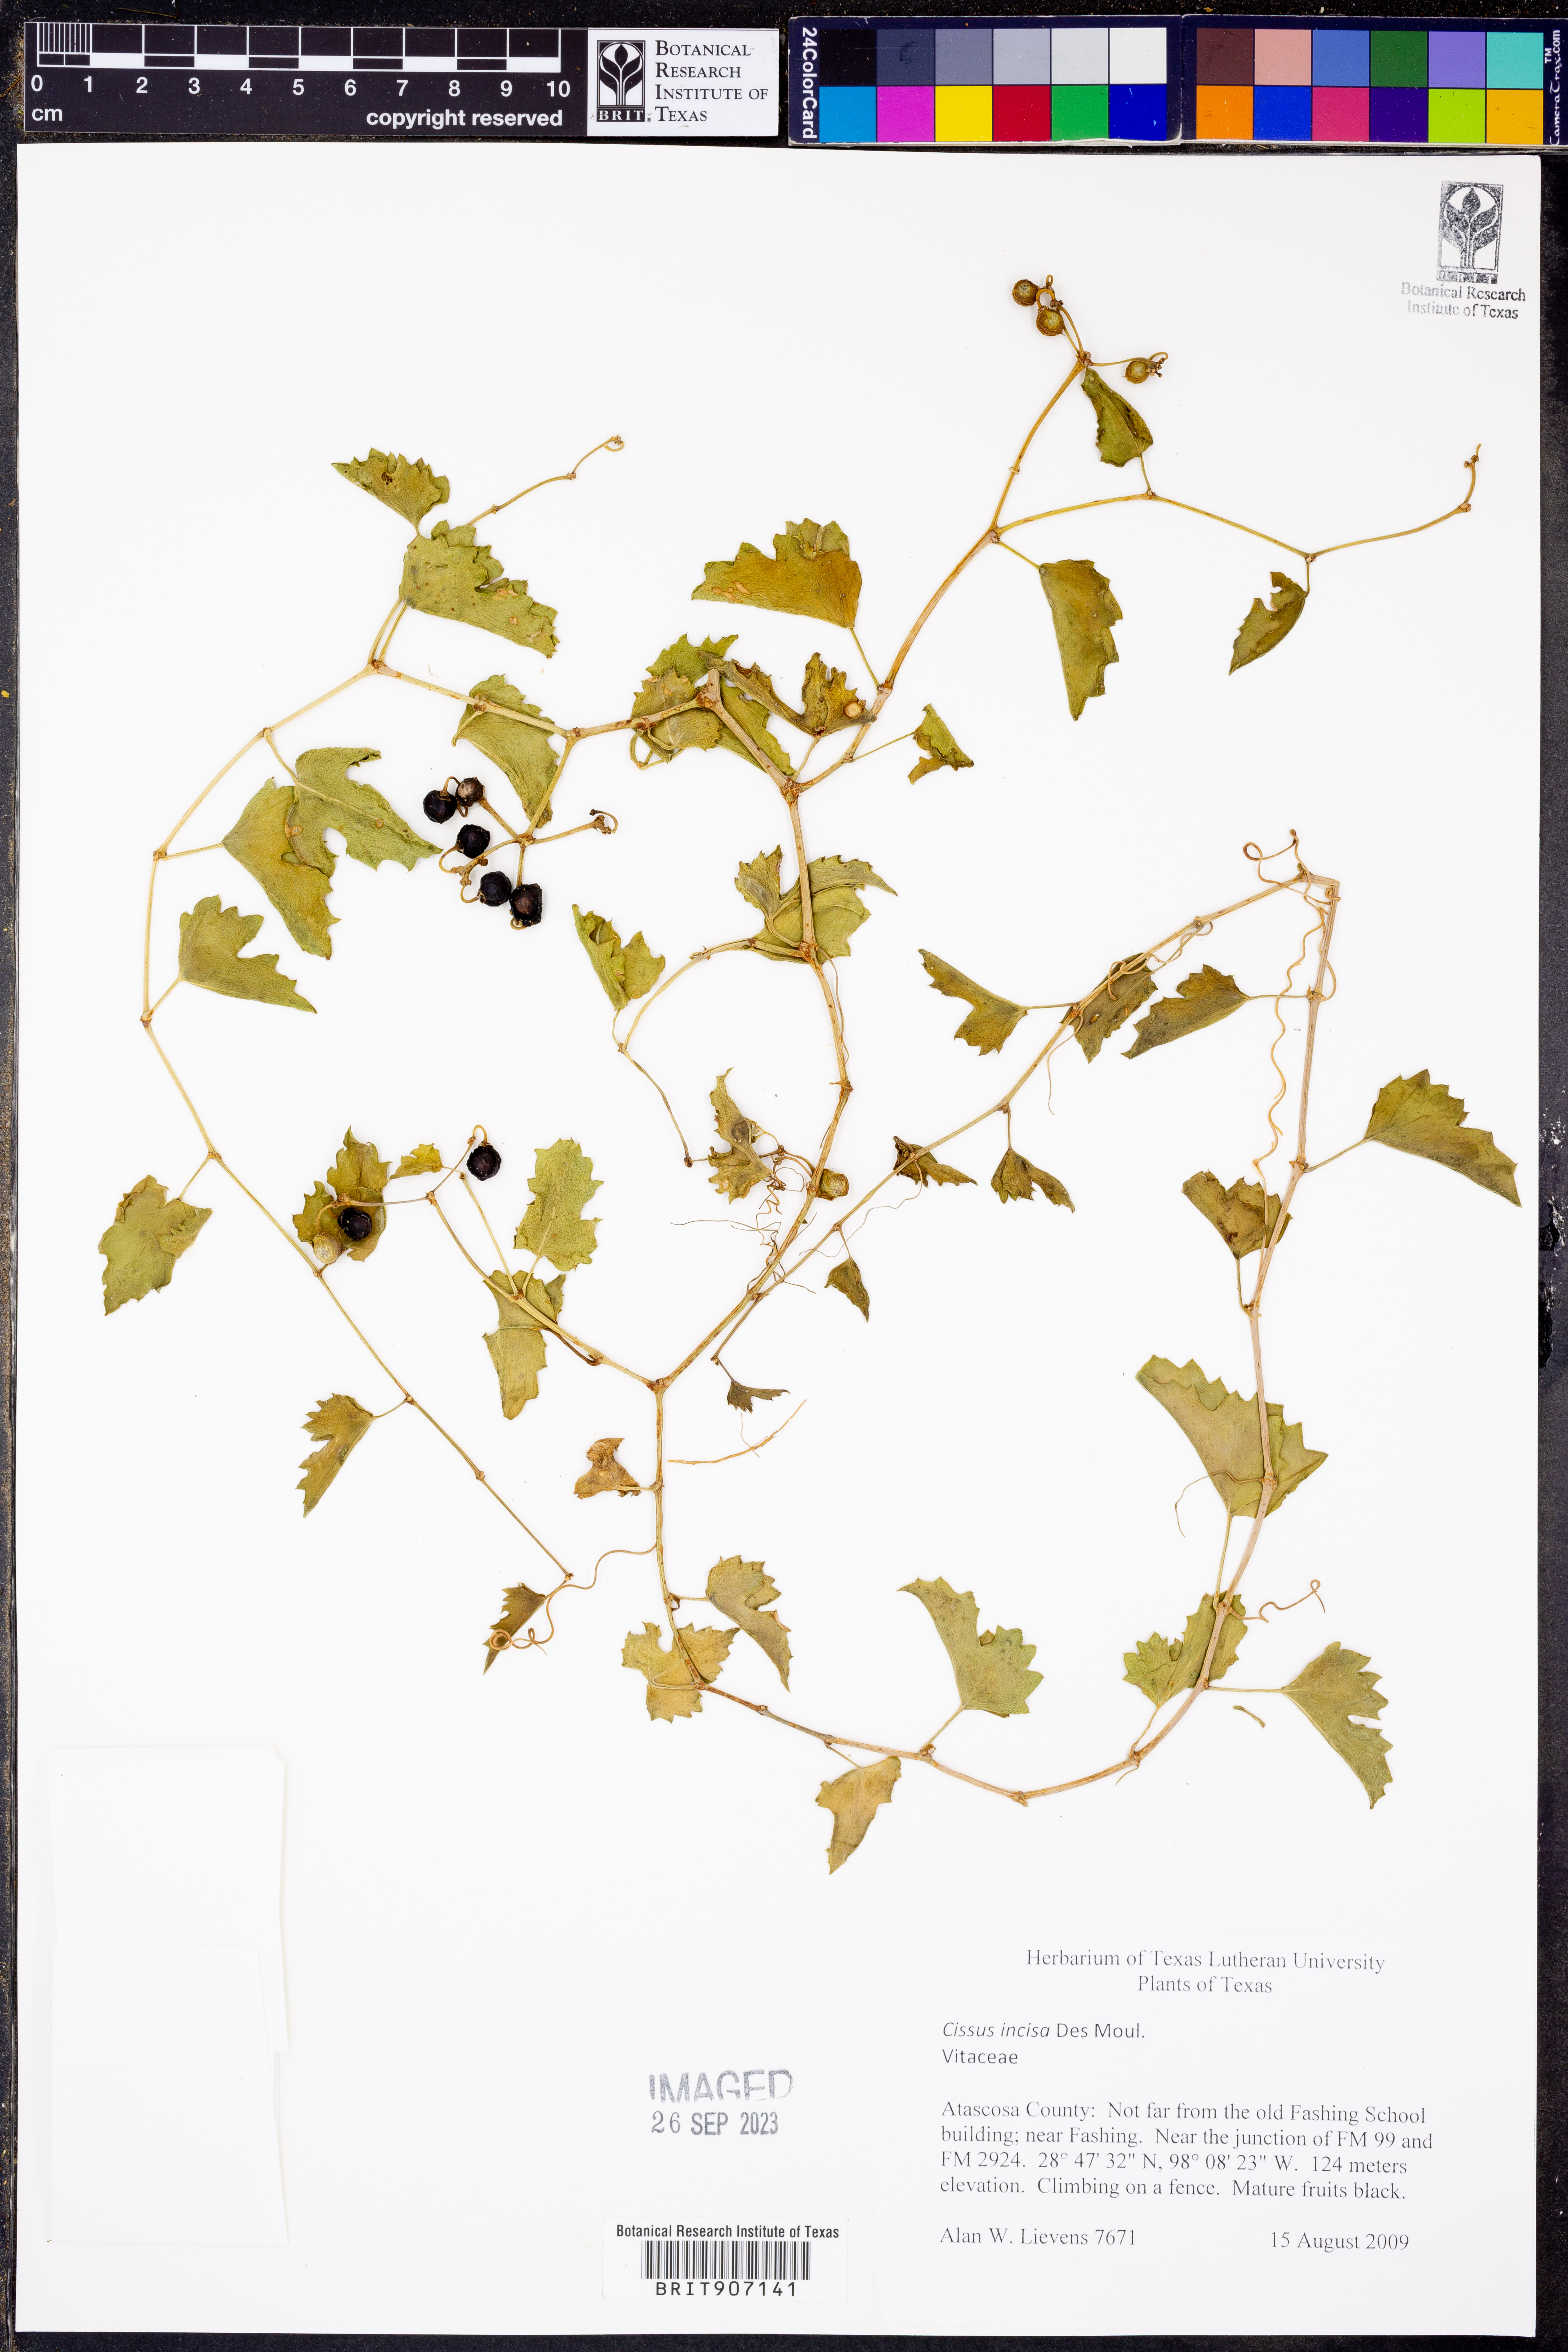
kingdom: Plantae
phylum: Tracheophyta
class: Magnoliopsida
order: Vitales
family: Vitaceae
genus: Cissus
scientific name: Cissus trifoliata
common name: Vine-sorrel
